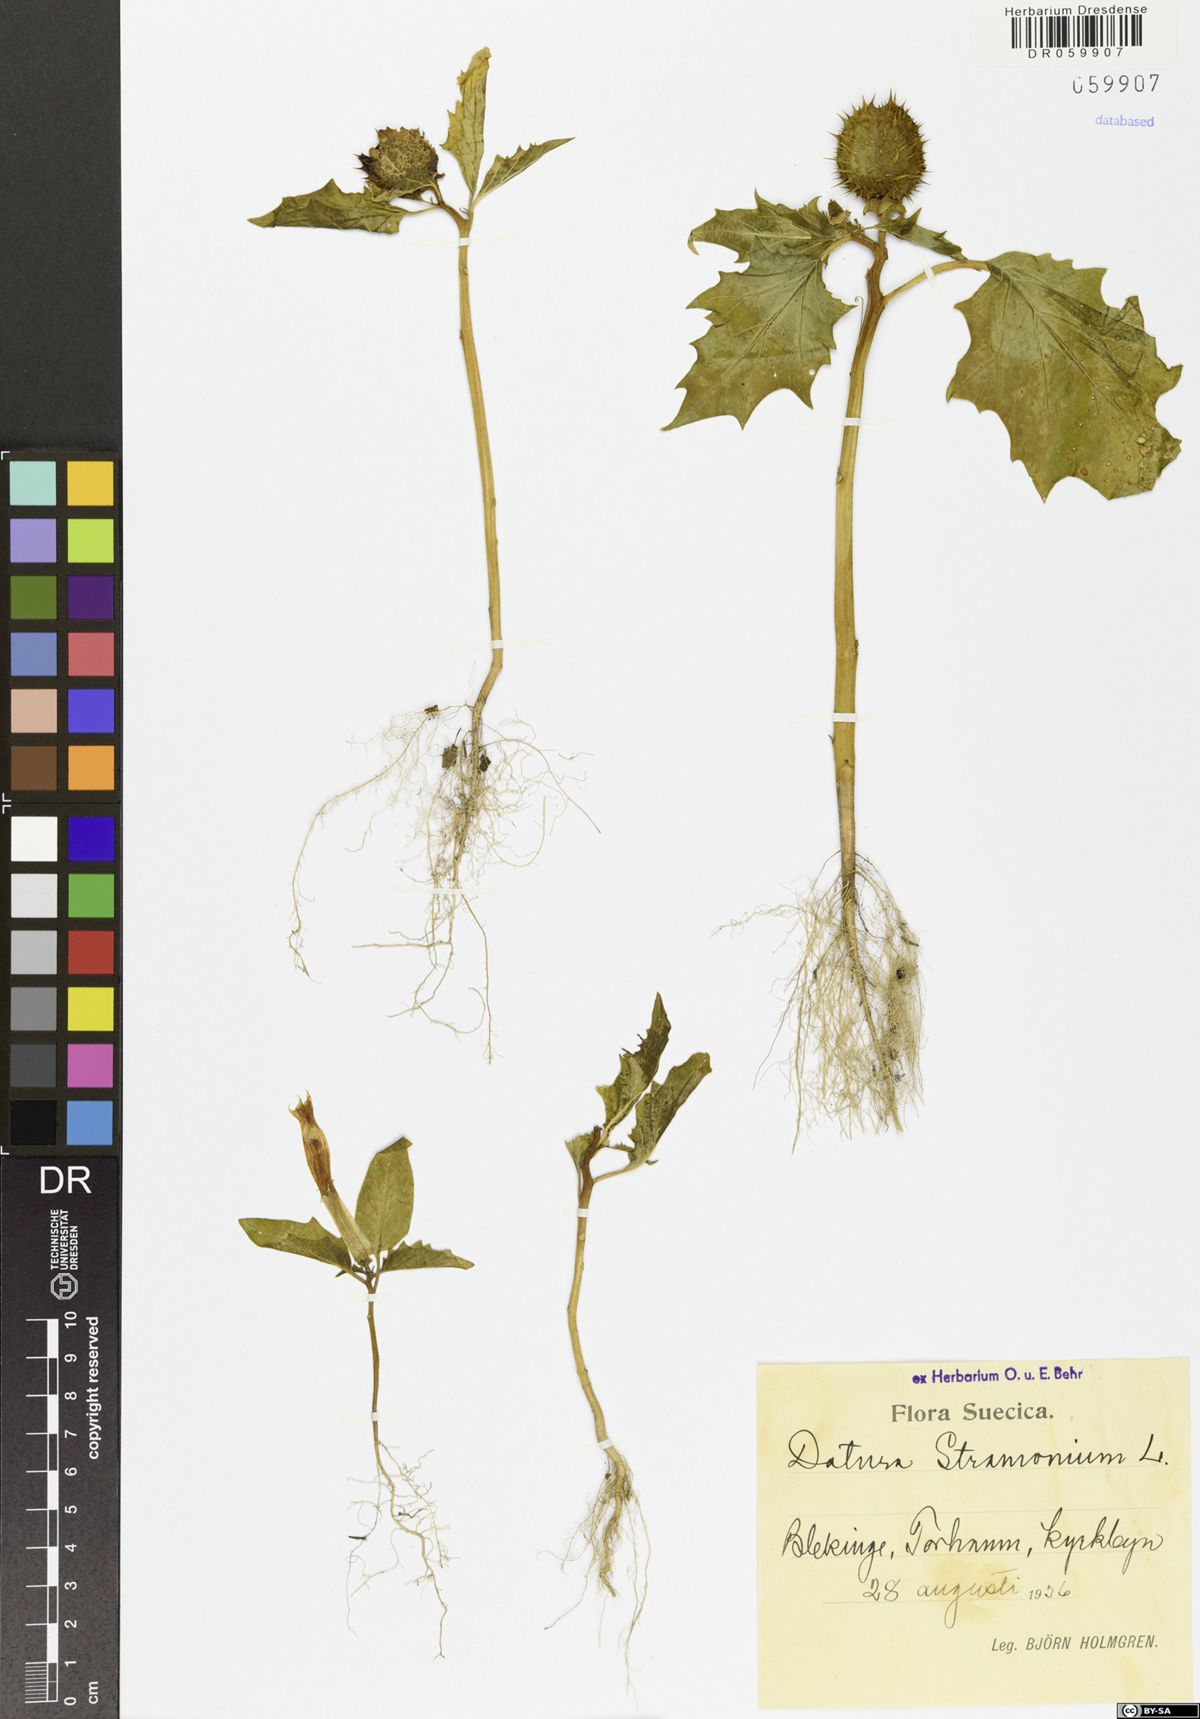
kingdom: Plantae
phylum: Tracheophyta
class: Magnoliopsida
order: Solanales
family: Solanaceae
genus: Datura
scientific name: Datura stramonium
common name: Thorn-apple
